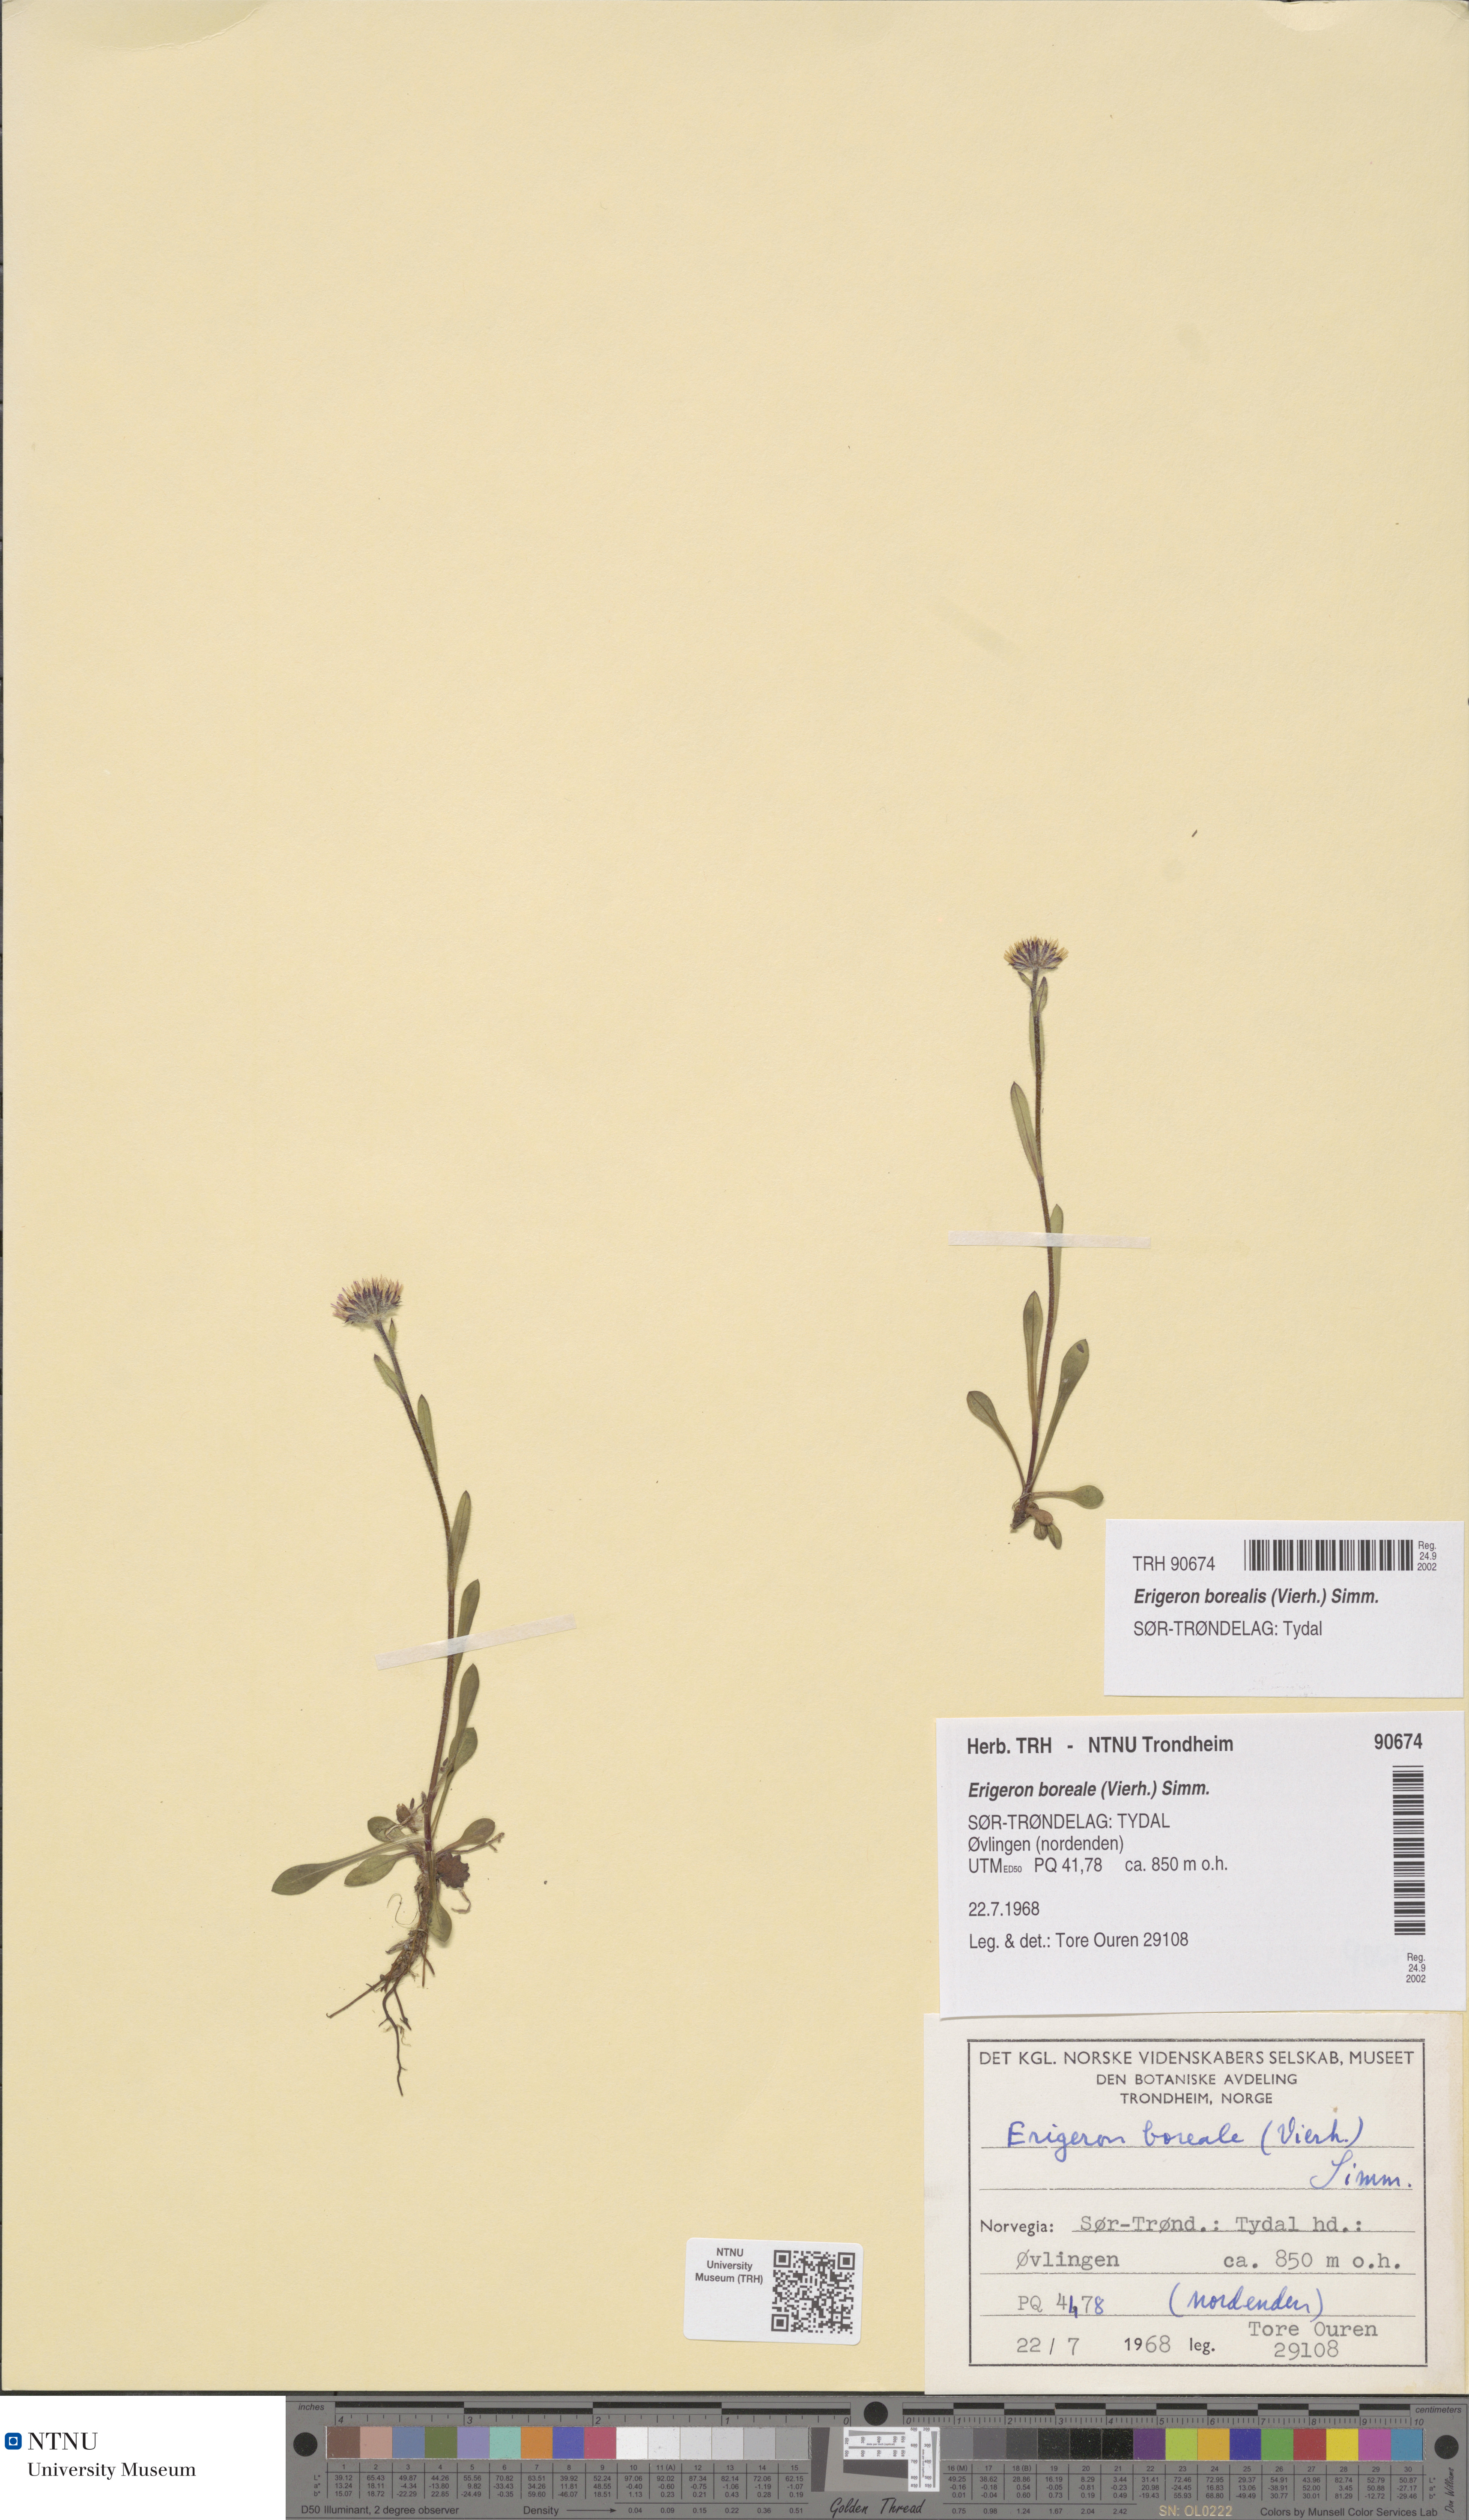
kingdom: Plantae
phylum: Tracheophyta
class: Magnoliopsida
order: Asterales
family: Asteraceae
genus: Erigeron
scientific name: Erigeron borealis
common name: Alpine fleabane
